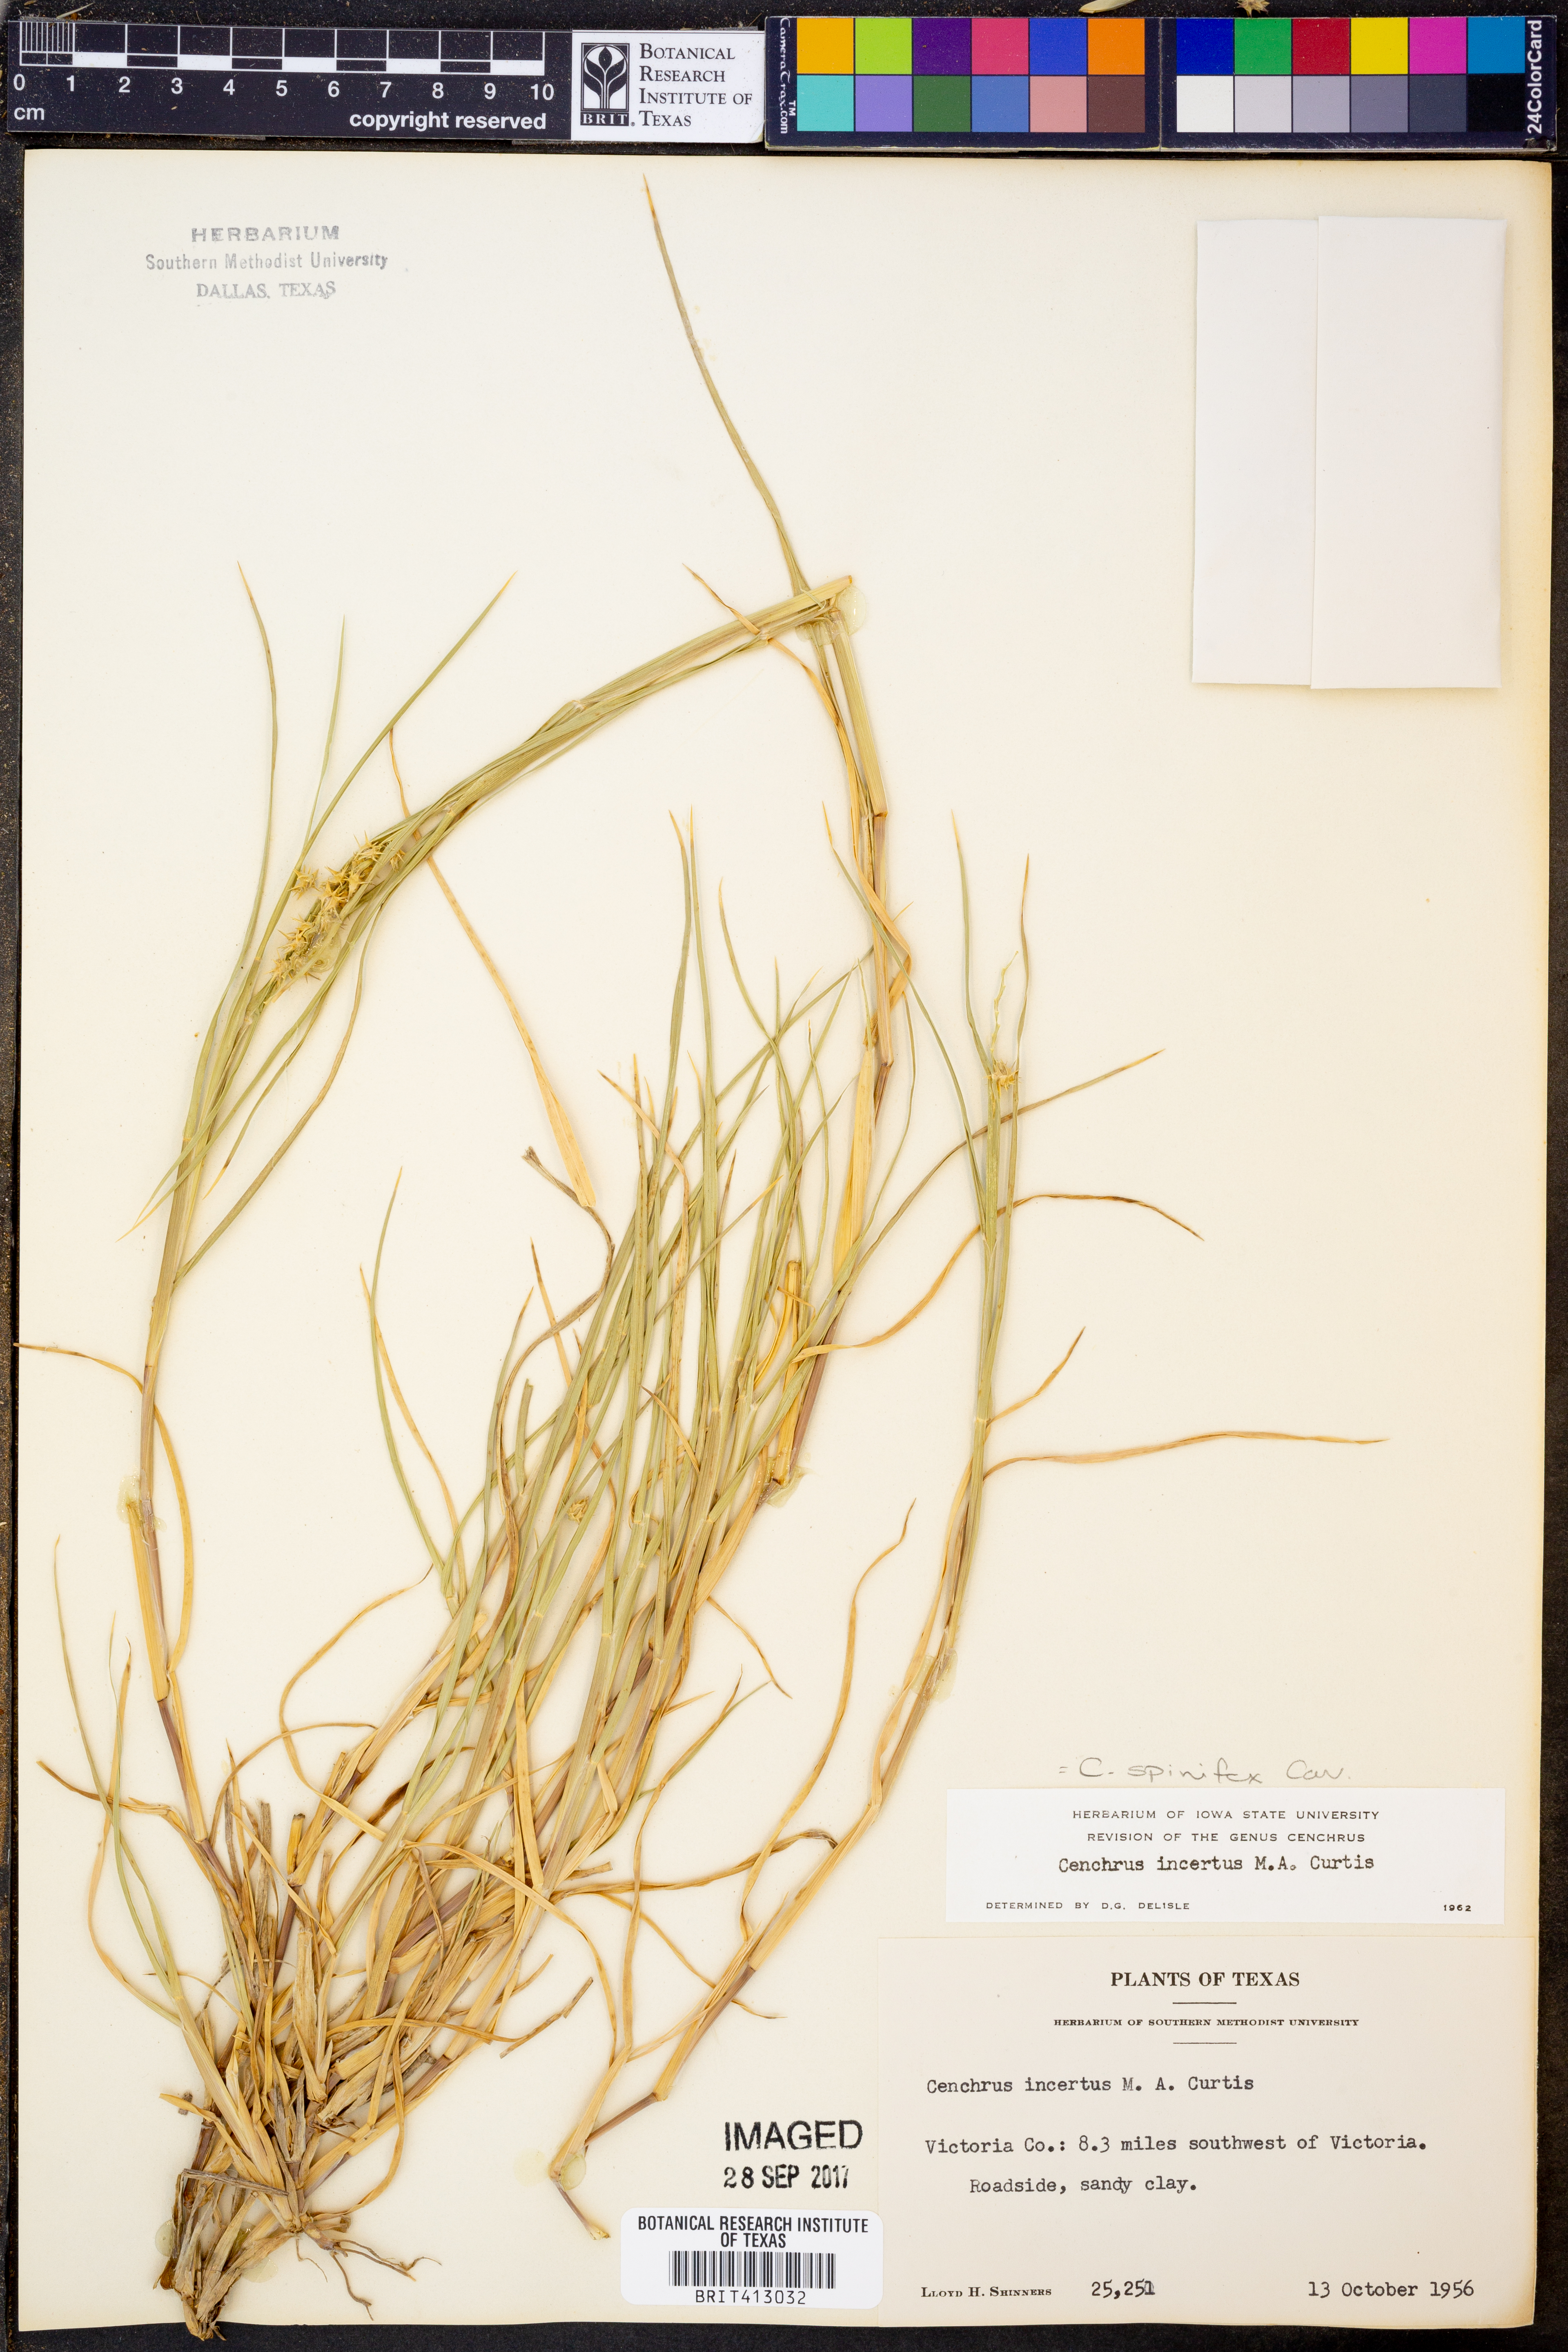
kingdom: Plantae
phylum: Tracheophyta
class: Liliopsida
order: Poales
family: Poaceae
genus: Cenchrus
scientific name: Cenchrus spinifex
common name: Coast sandbur
